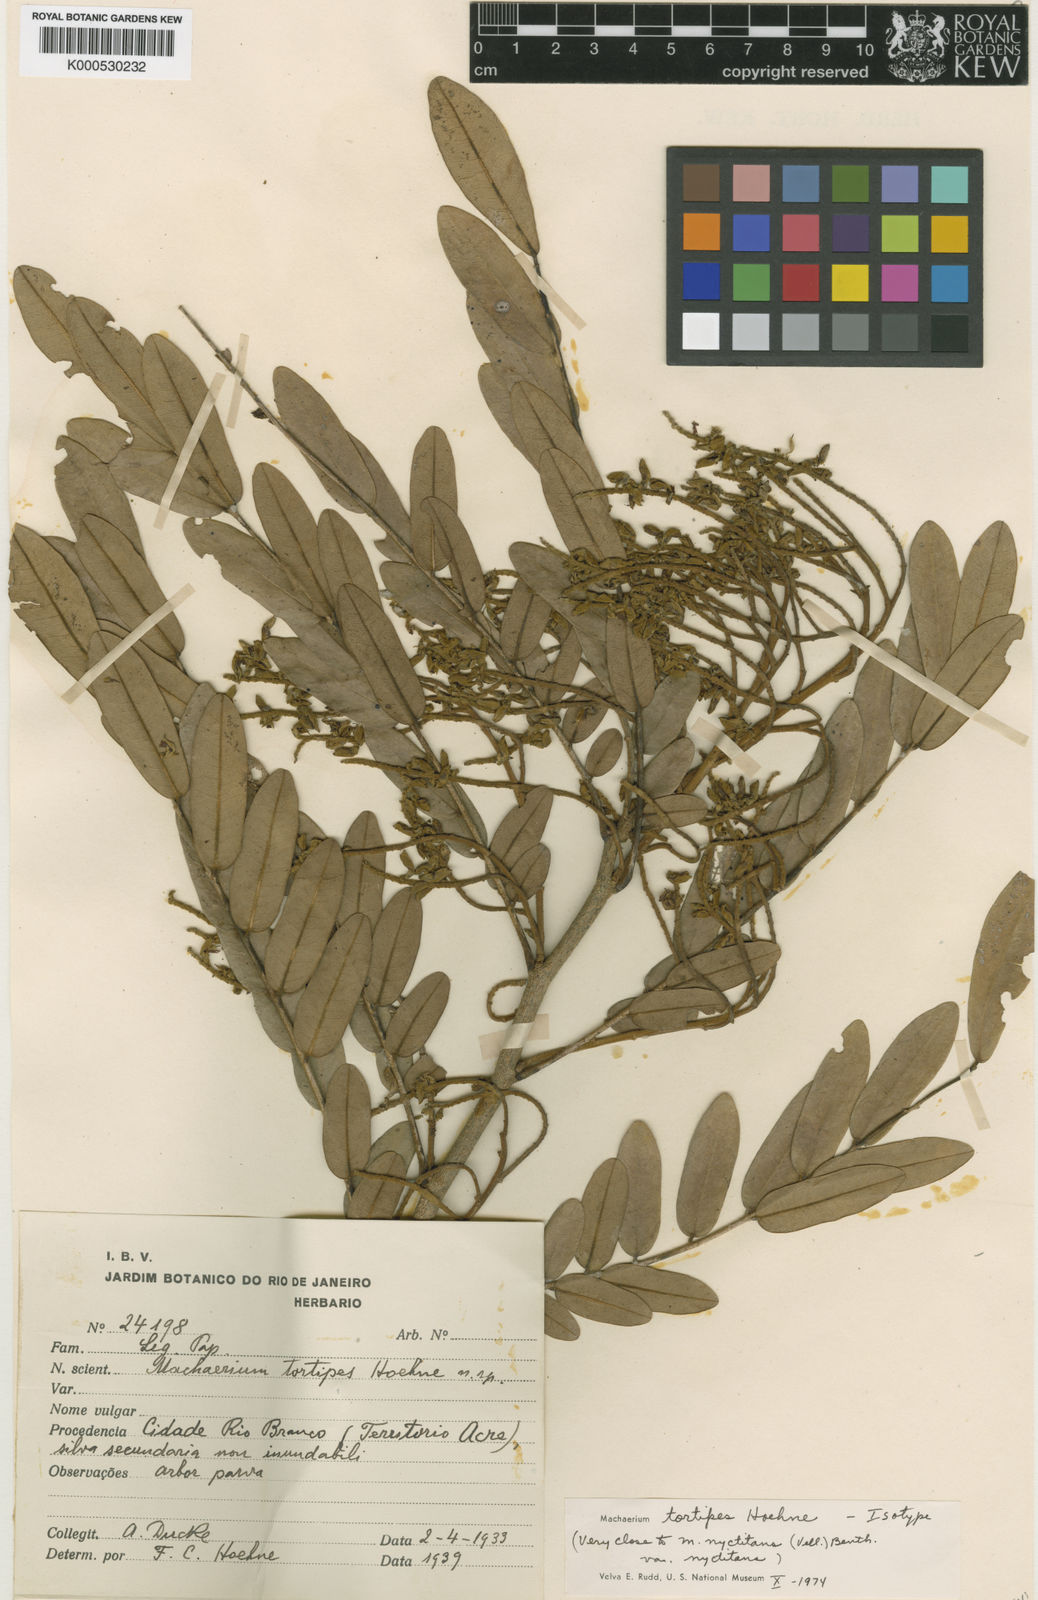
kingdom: Plantae
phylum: Tracheophyta
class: Magnoliopsida
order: Fabales
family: Fabaceae
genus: Machaerium
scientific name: Machaerium tortipes
